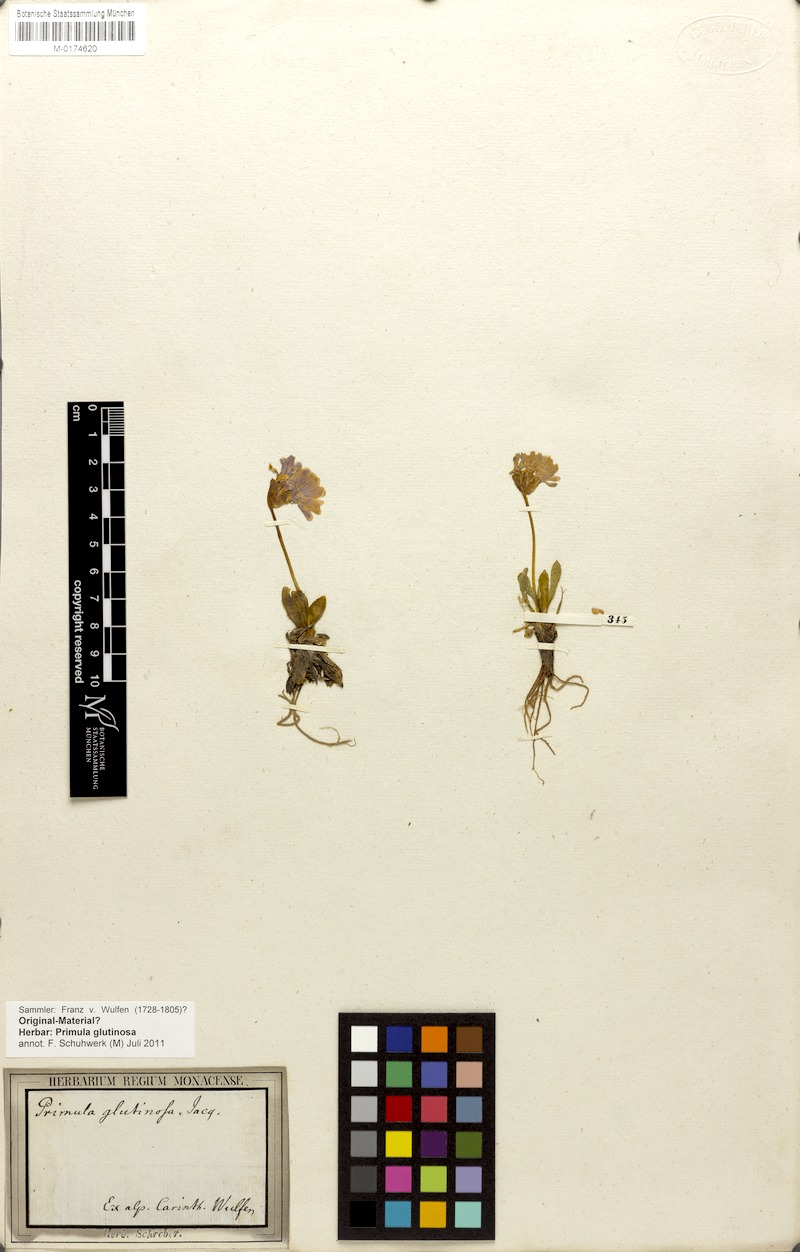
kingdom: Plantae
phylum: Tracheophyta
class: Magnoliopsida
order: Ericales
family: Primulaceae
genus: Primula
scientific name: Primula glutinosa
